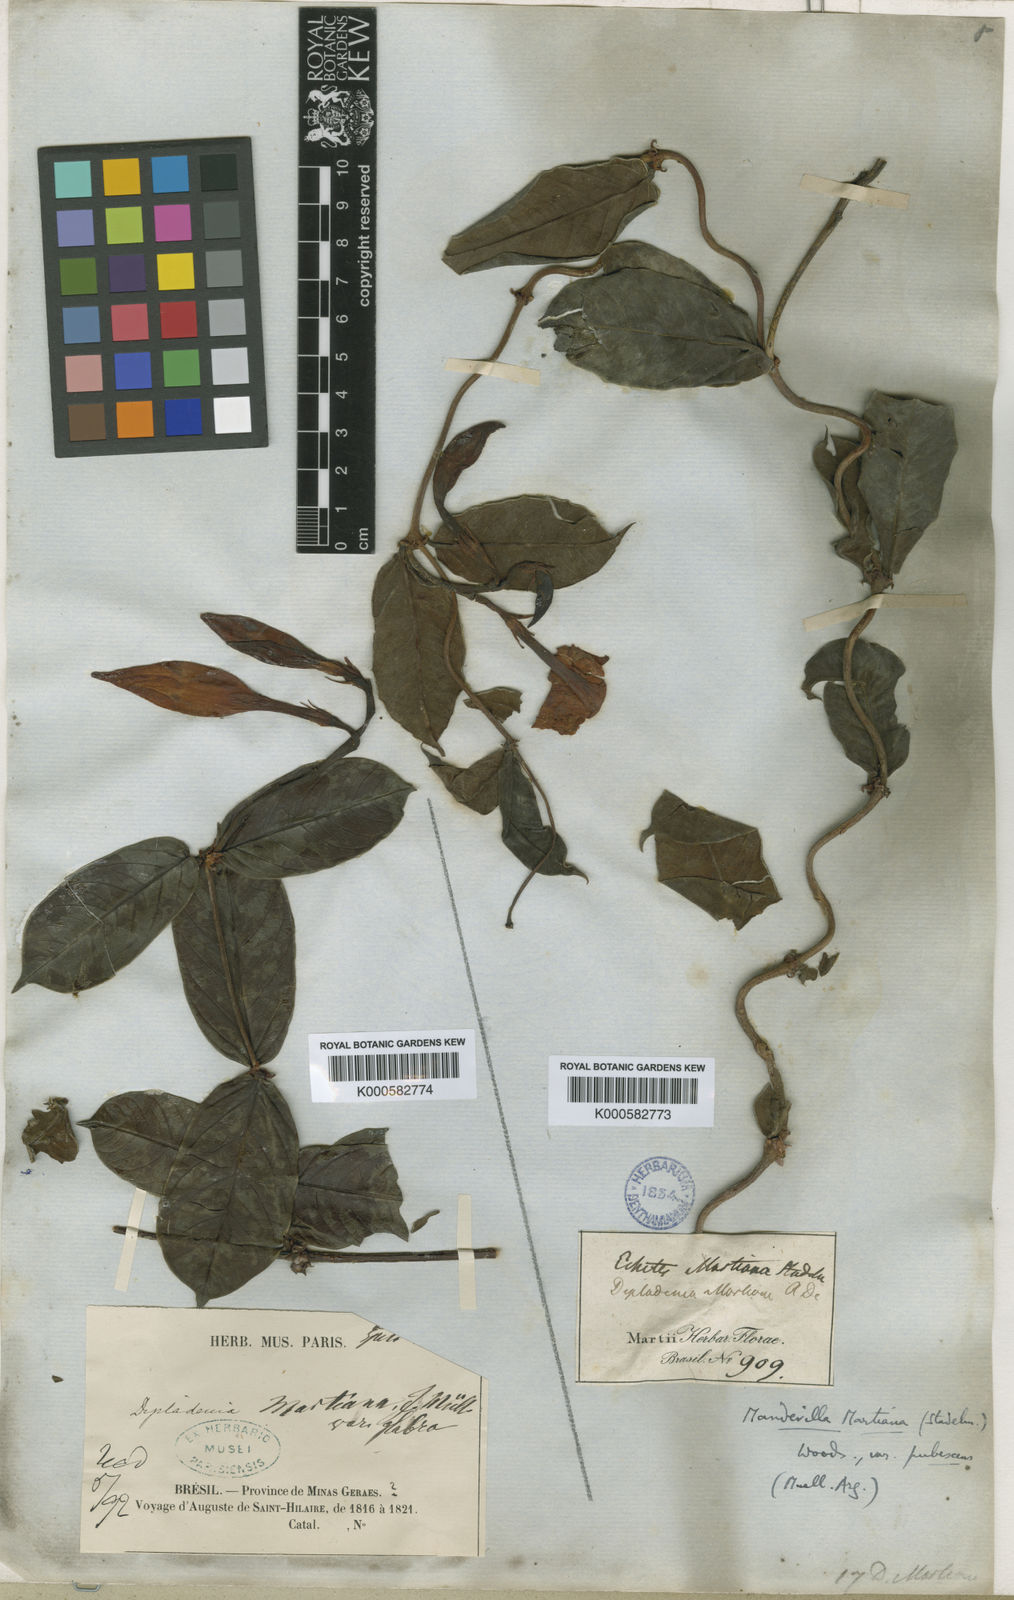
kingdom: Plantae
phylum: Tracheophyta
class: Magnoliopsida
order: Gentianales
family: Apocynaceae
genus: Mandevilla
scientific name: Mandevilla martiana
